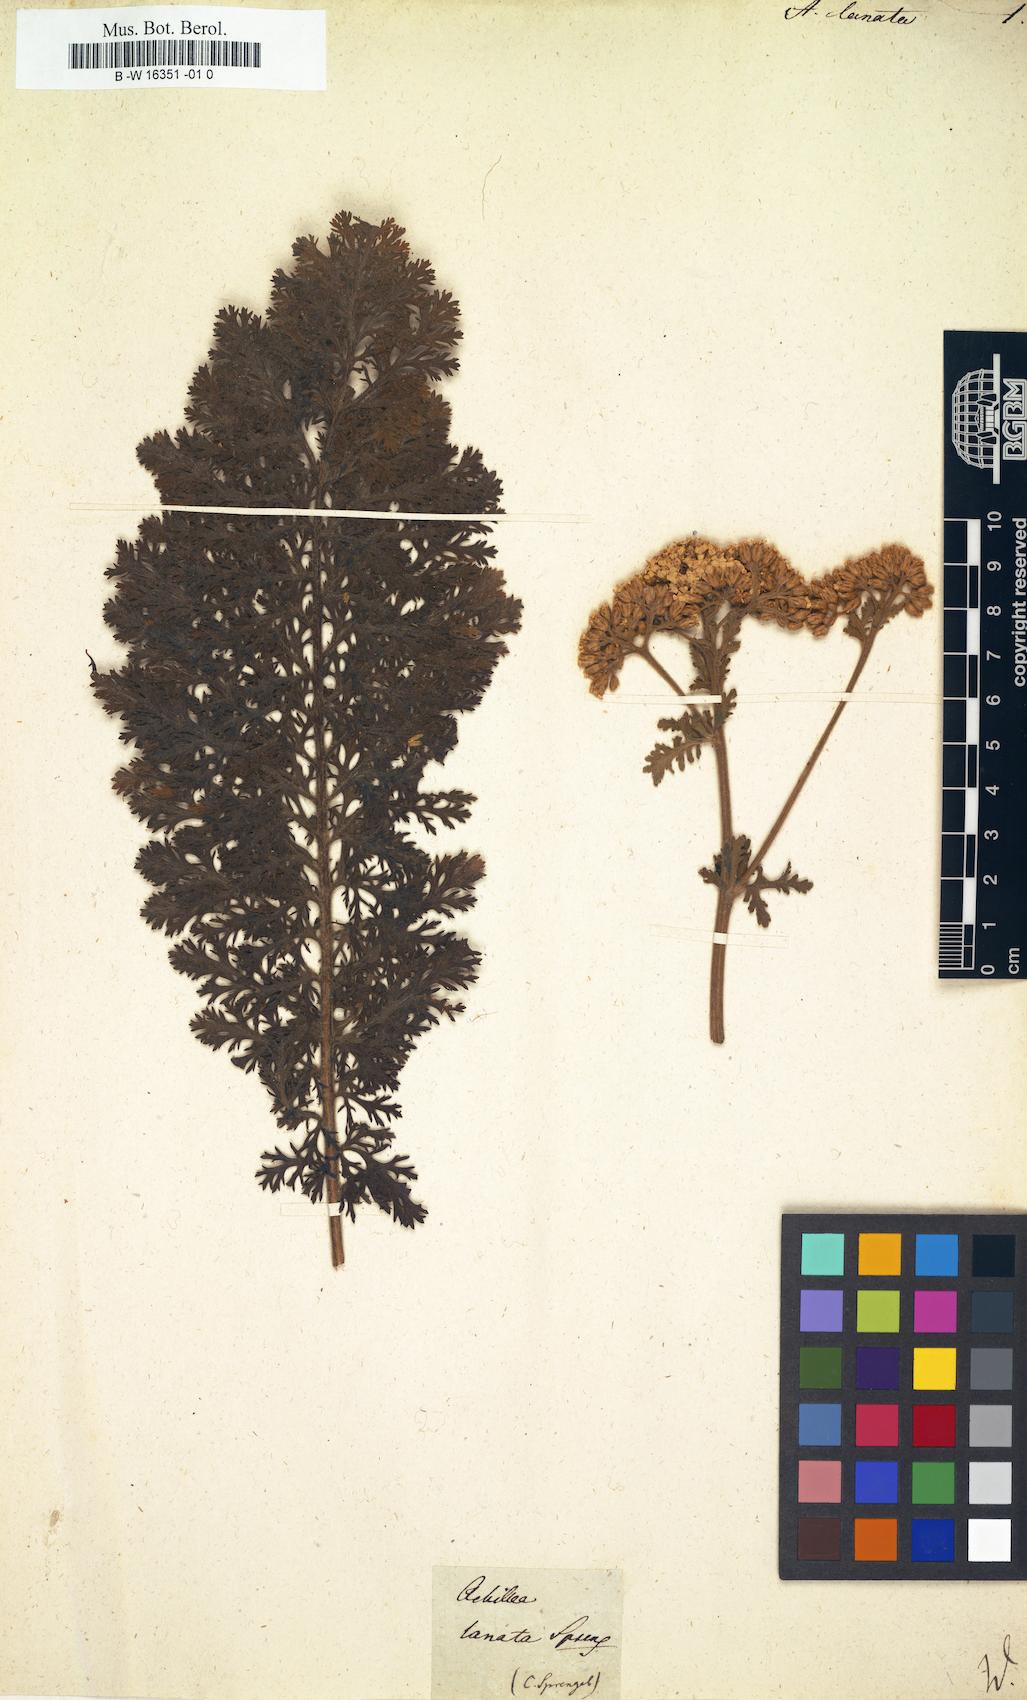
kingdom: Plantae
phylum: Tracheophyta
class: Magnoliopsida
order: Asterales
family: Asteraceae
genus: Achillea
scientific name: Achillea distans
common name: Tall yarrow
